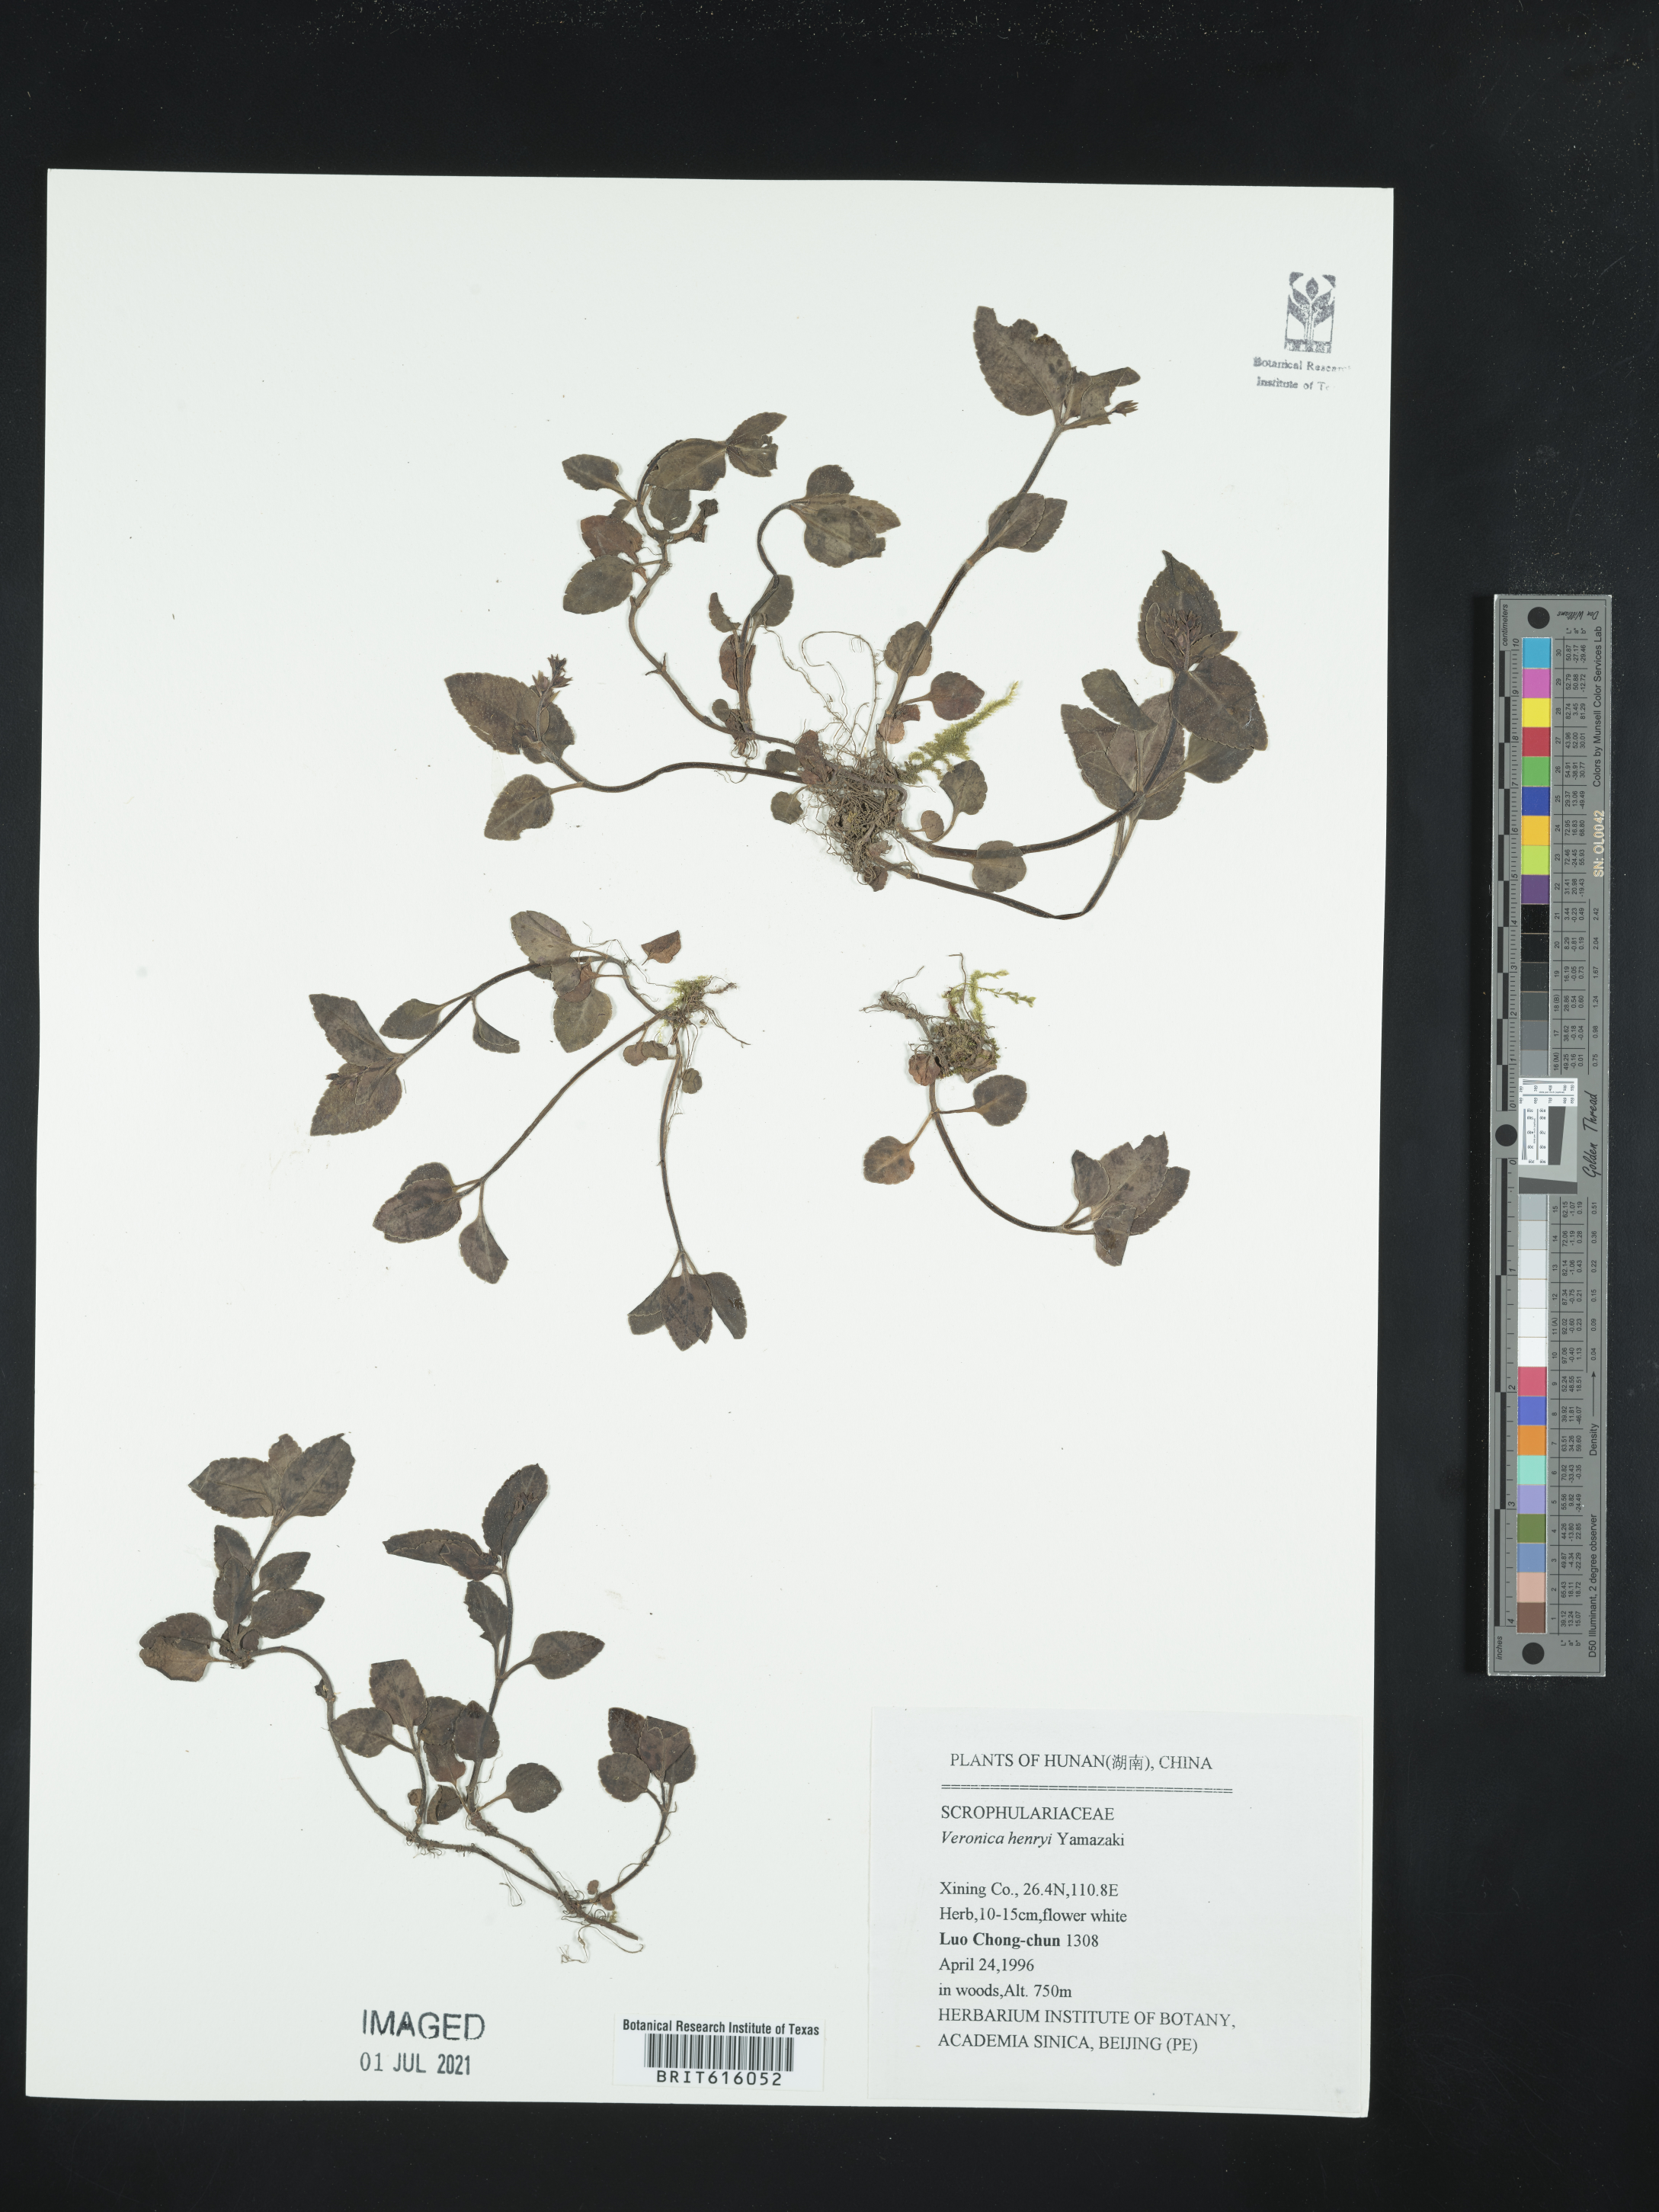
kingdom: Plantae
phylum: Tracheophyta
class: Magnoliopsida
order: Lamiales
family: Plantaginaceae
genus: Veronica
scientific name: Veronica henryi
